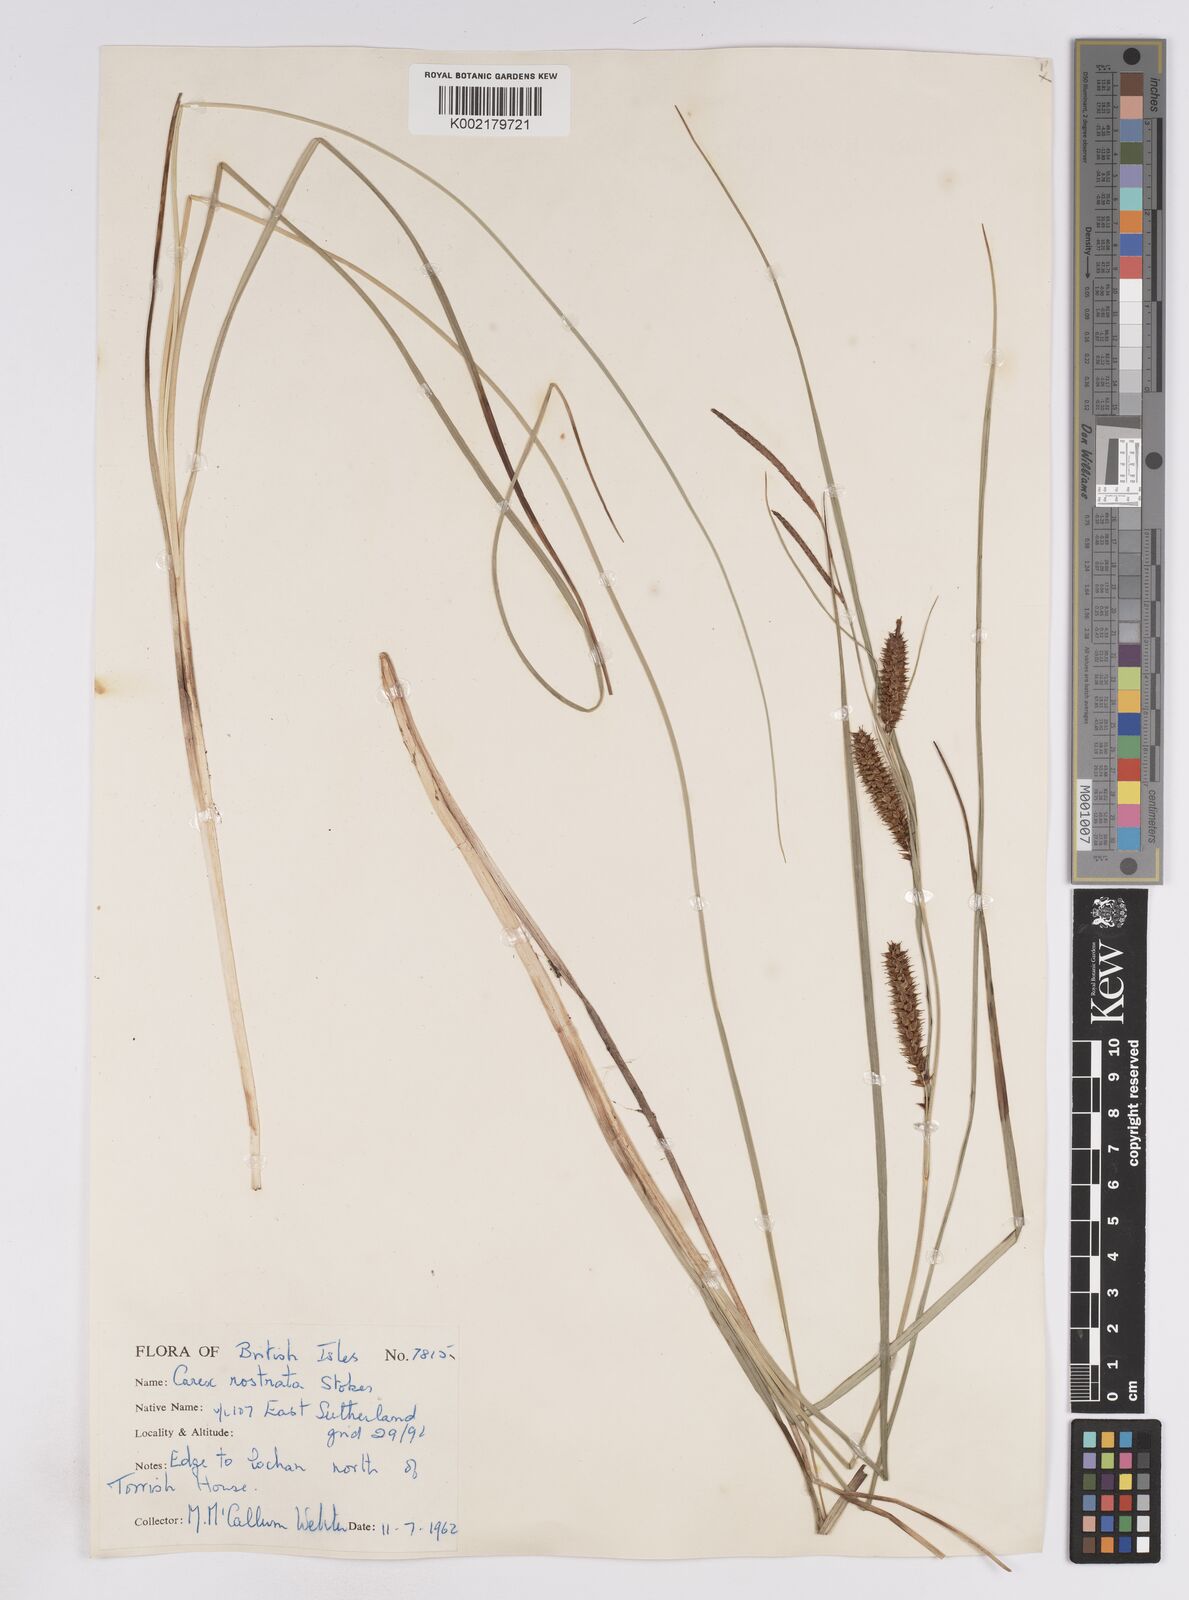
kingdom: Plantae
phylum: Tracheophyta
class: Liliopsida
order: Poales
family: Cyperaceae
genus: Carex
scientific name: Carex rostrata
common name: Bottle sedge
